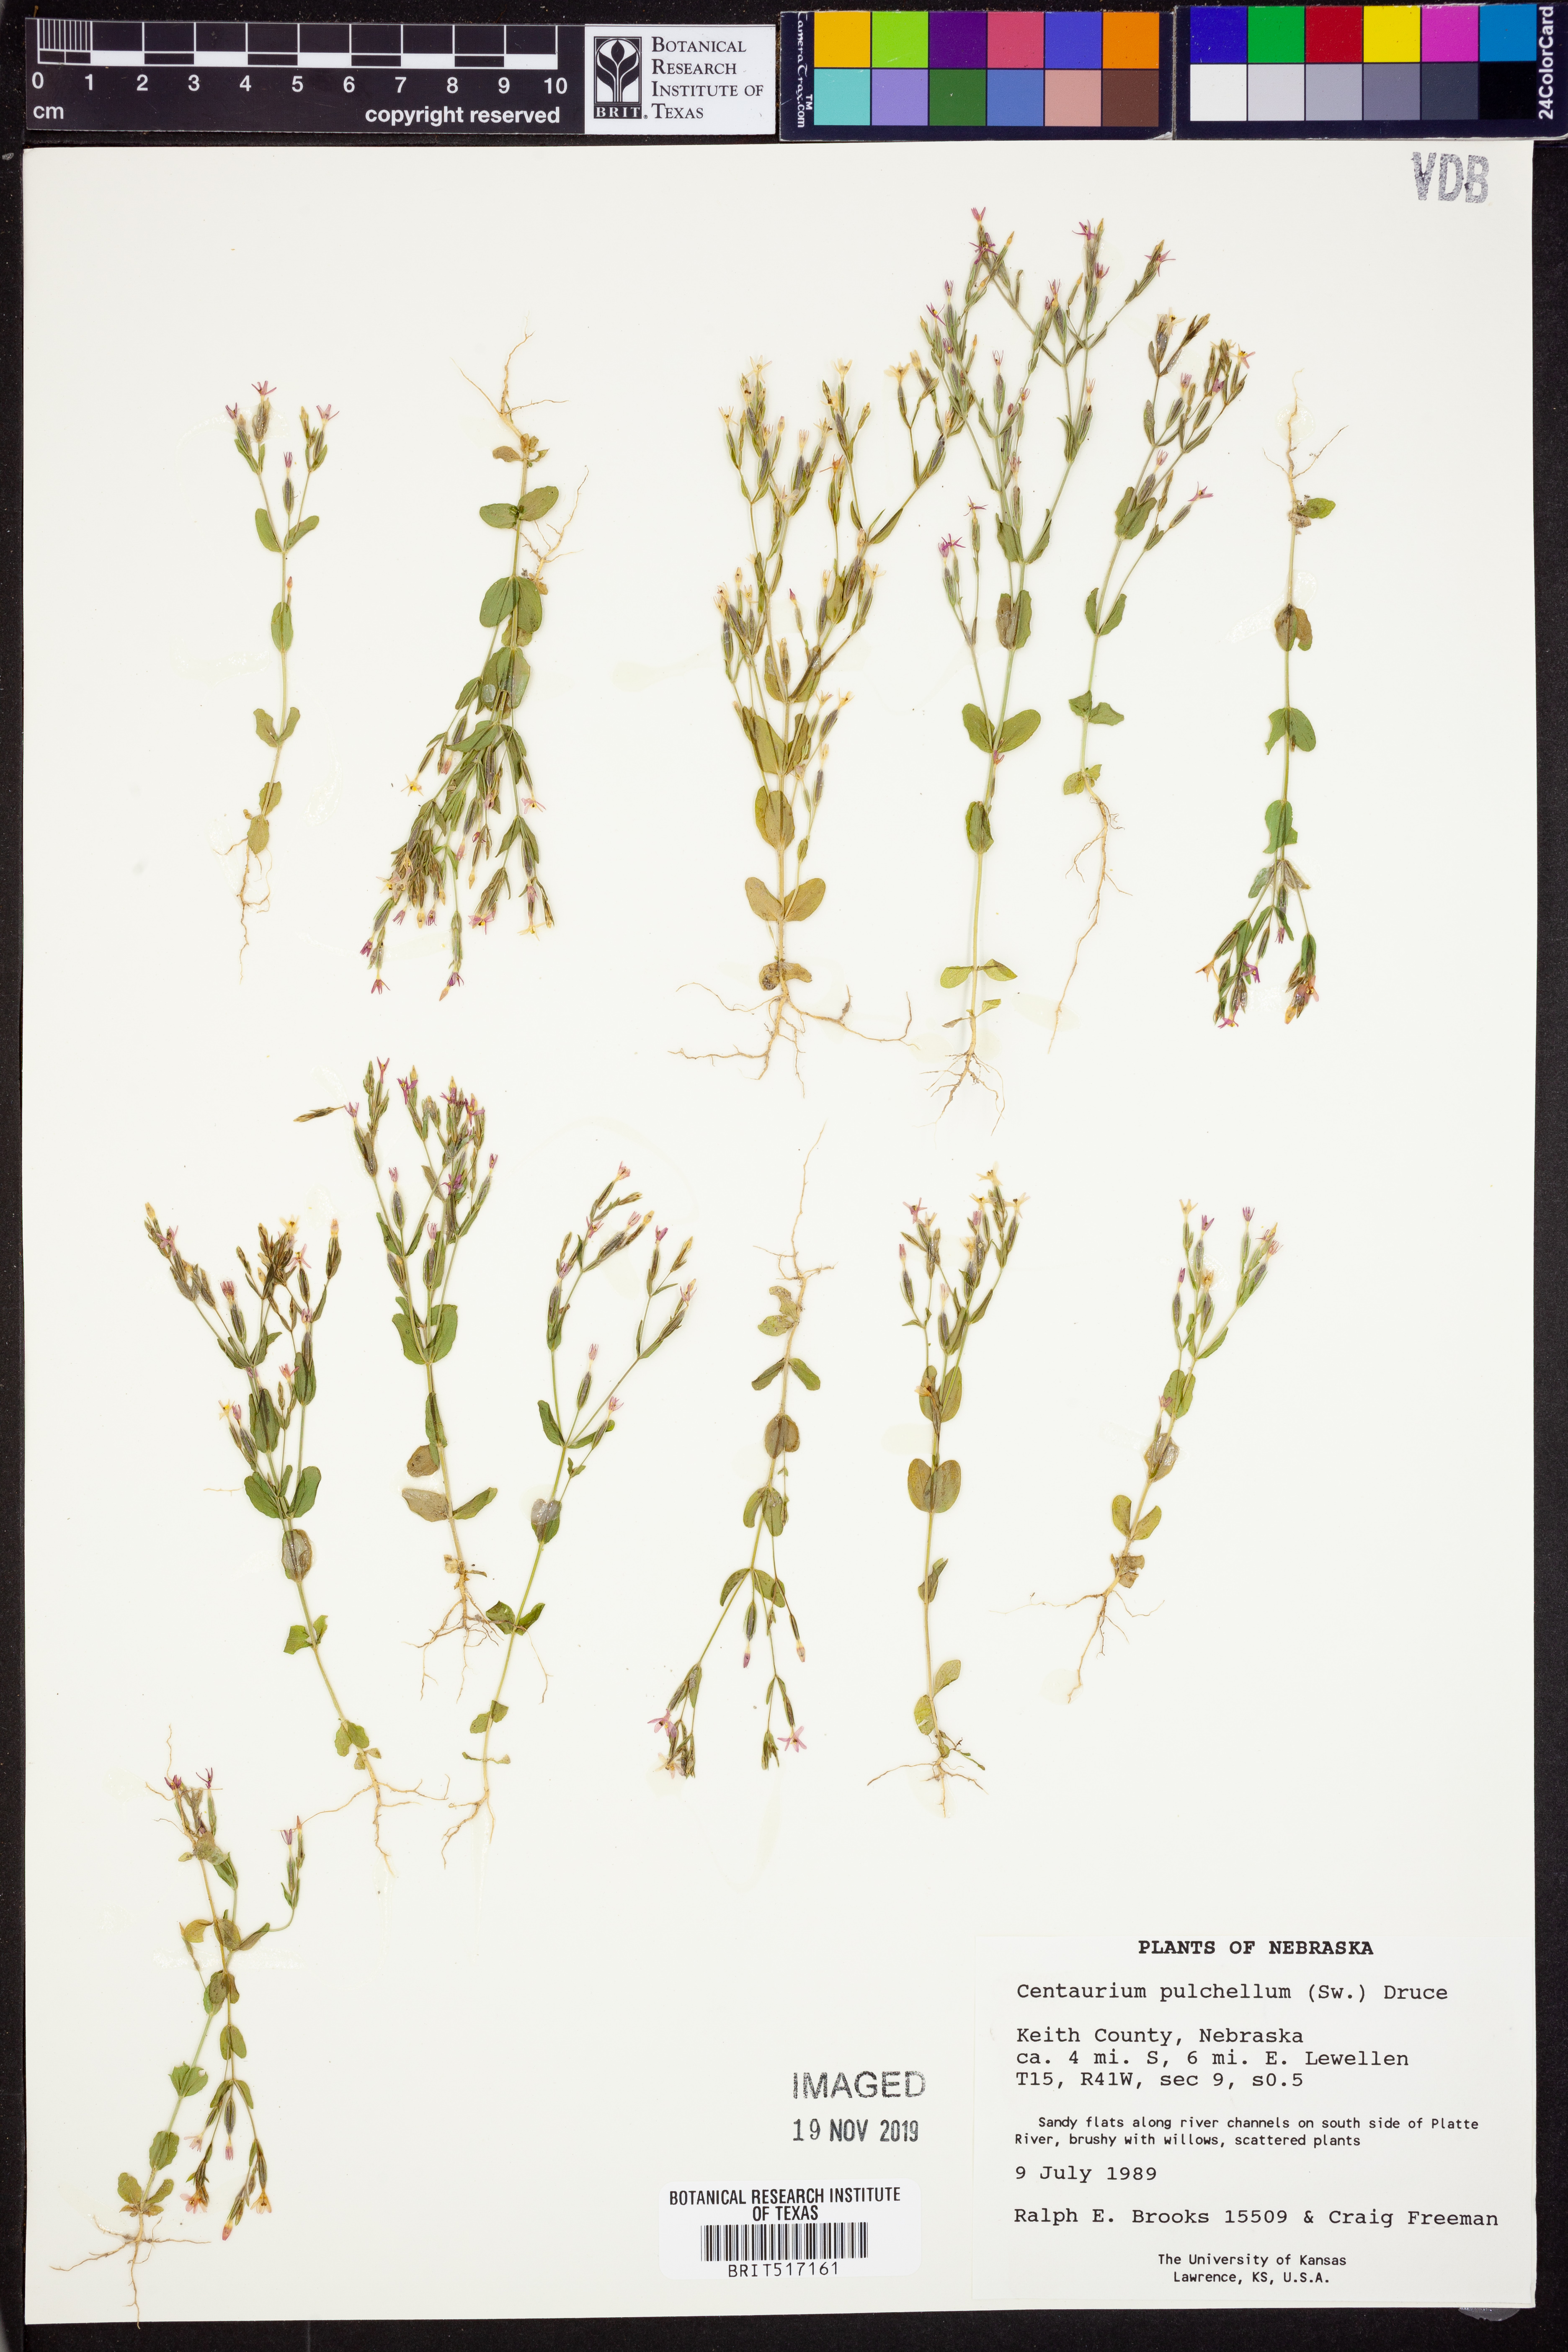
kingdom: Plantae
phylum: Tracheophyta
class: Magnoliopsida
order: Gentianales
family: Gentianaceae
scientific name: Gentianaceae
